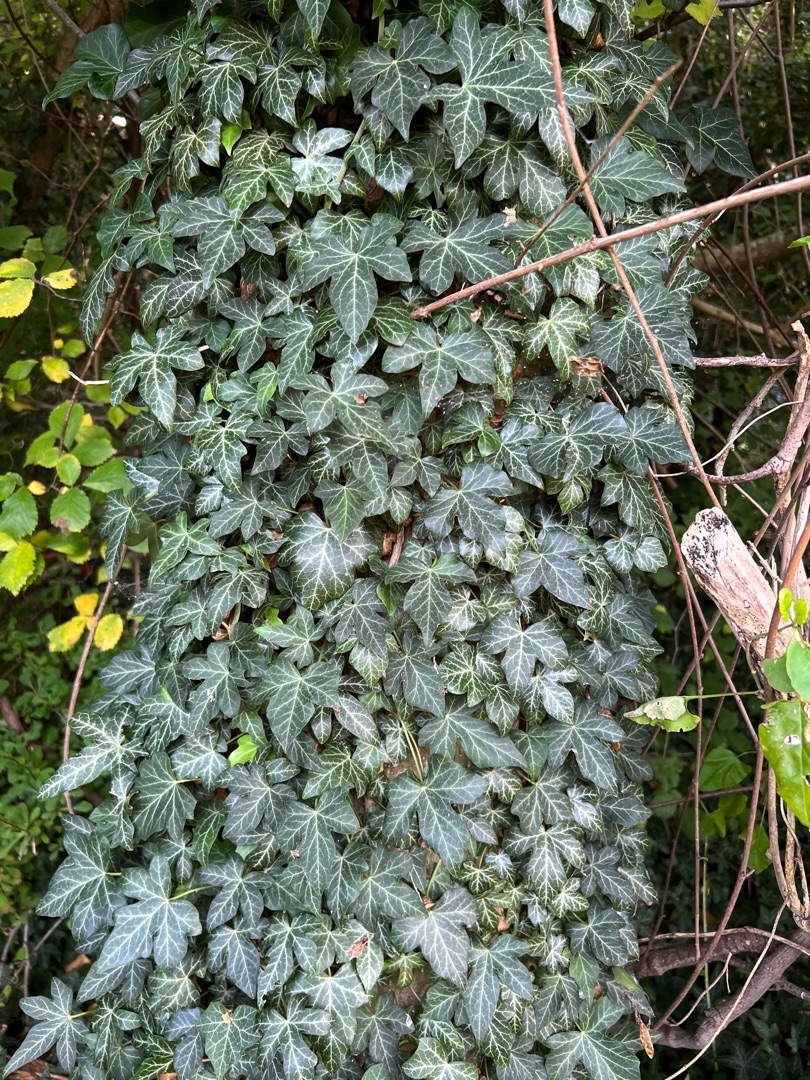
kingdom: Plantae
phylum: Tracheophyta
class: Magnoliopsida
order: Apiales
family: Araliaceae
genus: Hedera
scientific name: Hedera helix
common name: Vedbend
